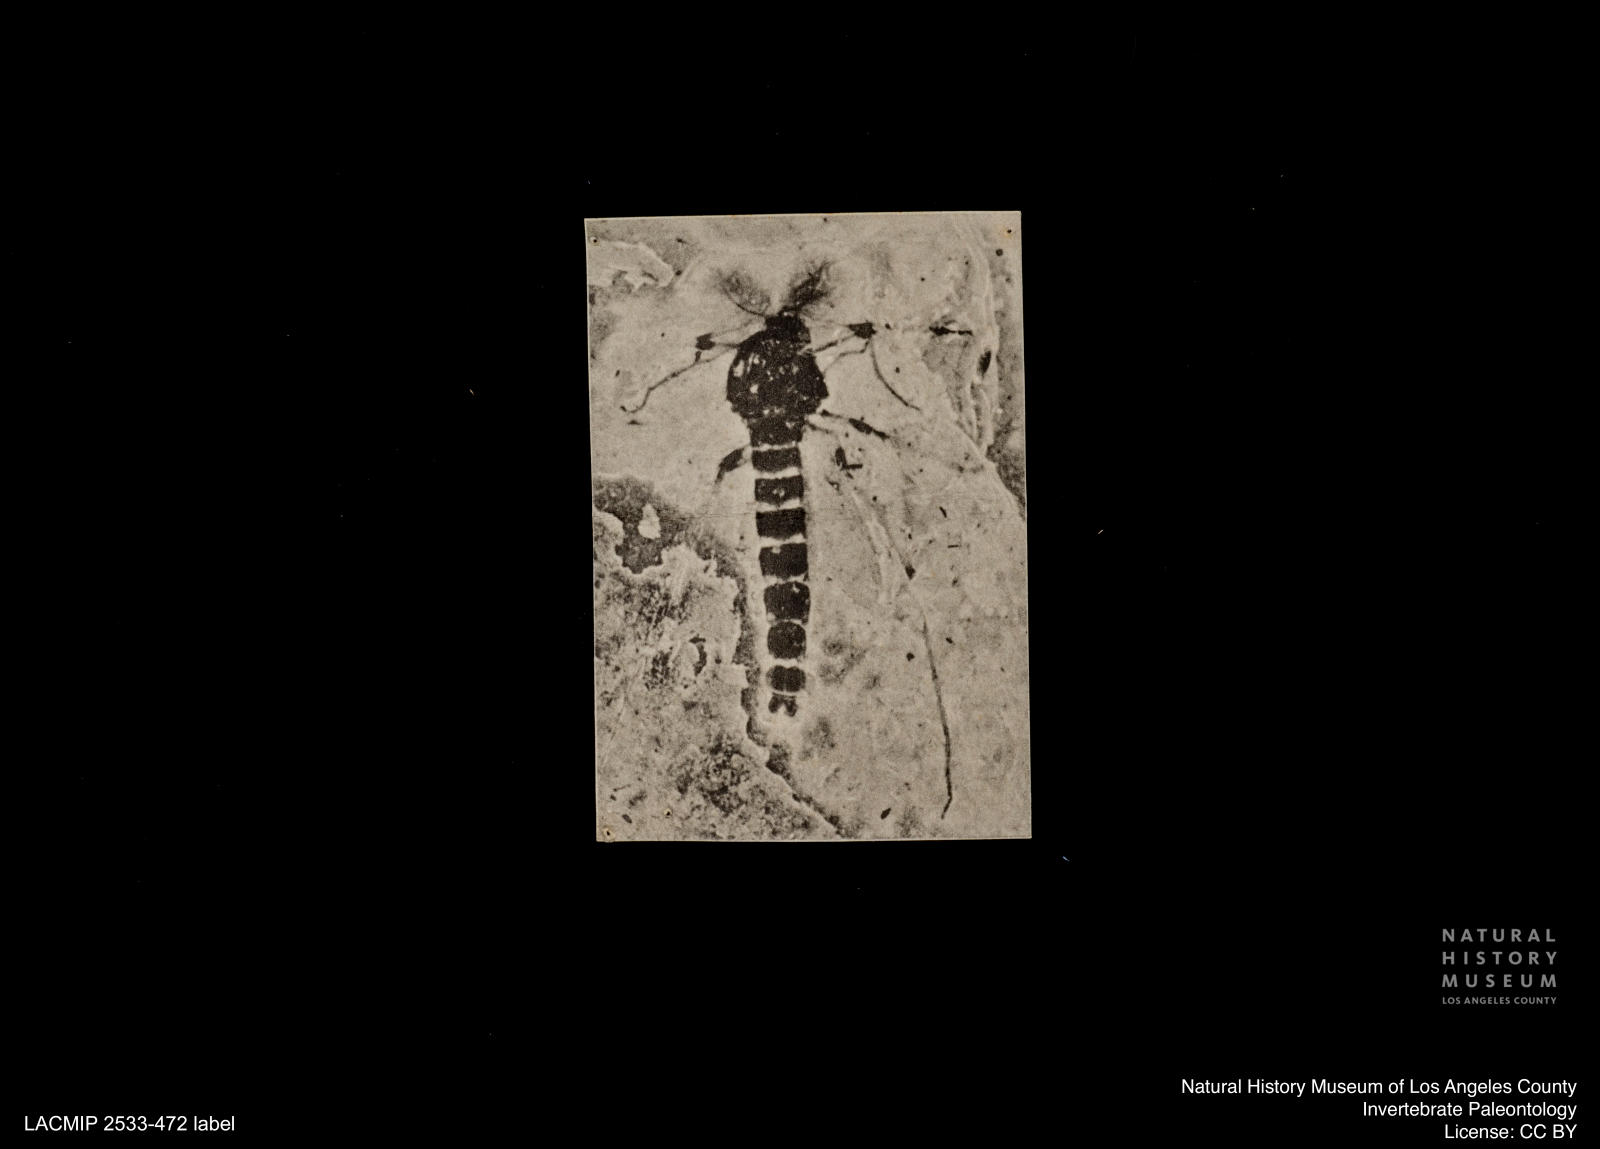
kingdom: Animalia
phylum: Arthropoda
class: Insecta
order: Diptera
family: Chironomidae
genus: Procladius
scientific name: Procladius
